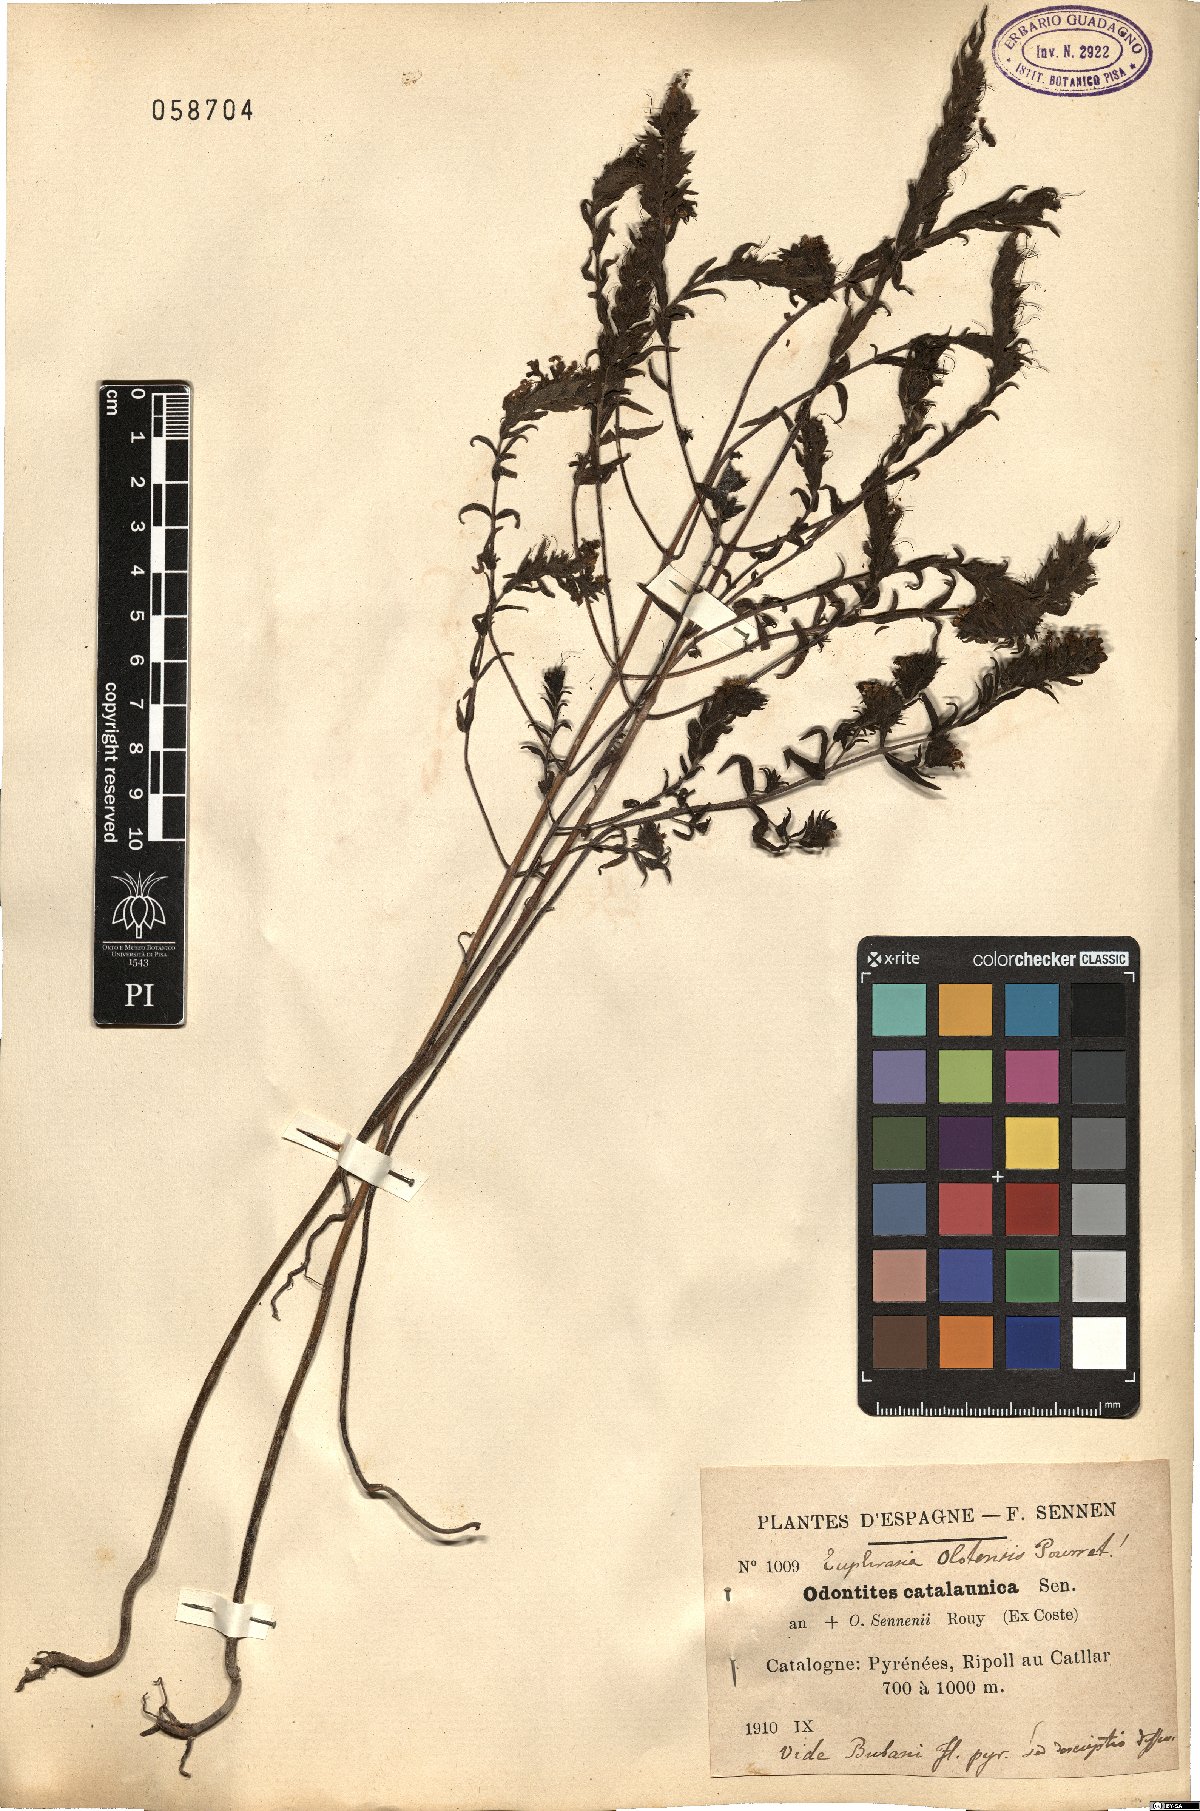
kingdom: Plantae
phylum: Tracheophyta
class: Magnoliopsida
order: Lamiales
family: Orobanchaceae
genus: Odontites
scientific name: Odontites cebennensis
